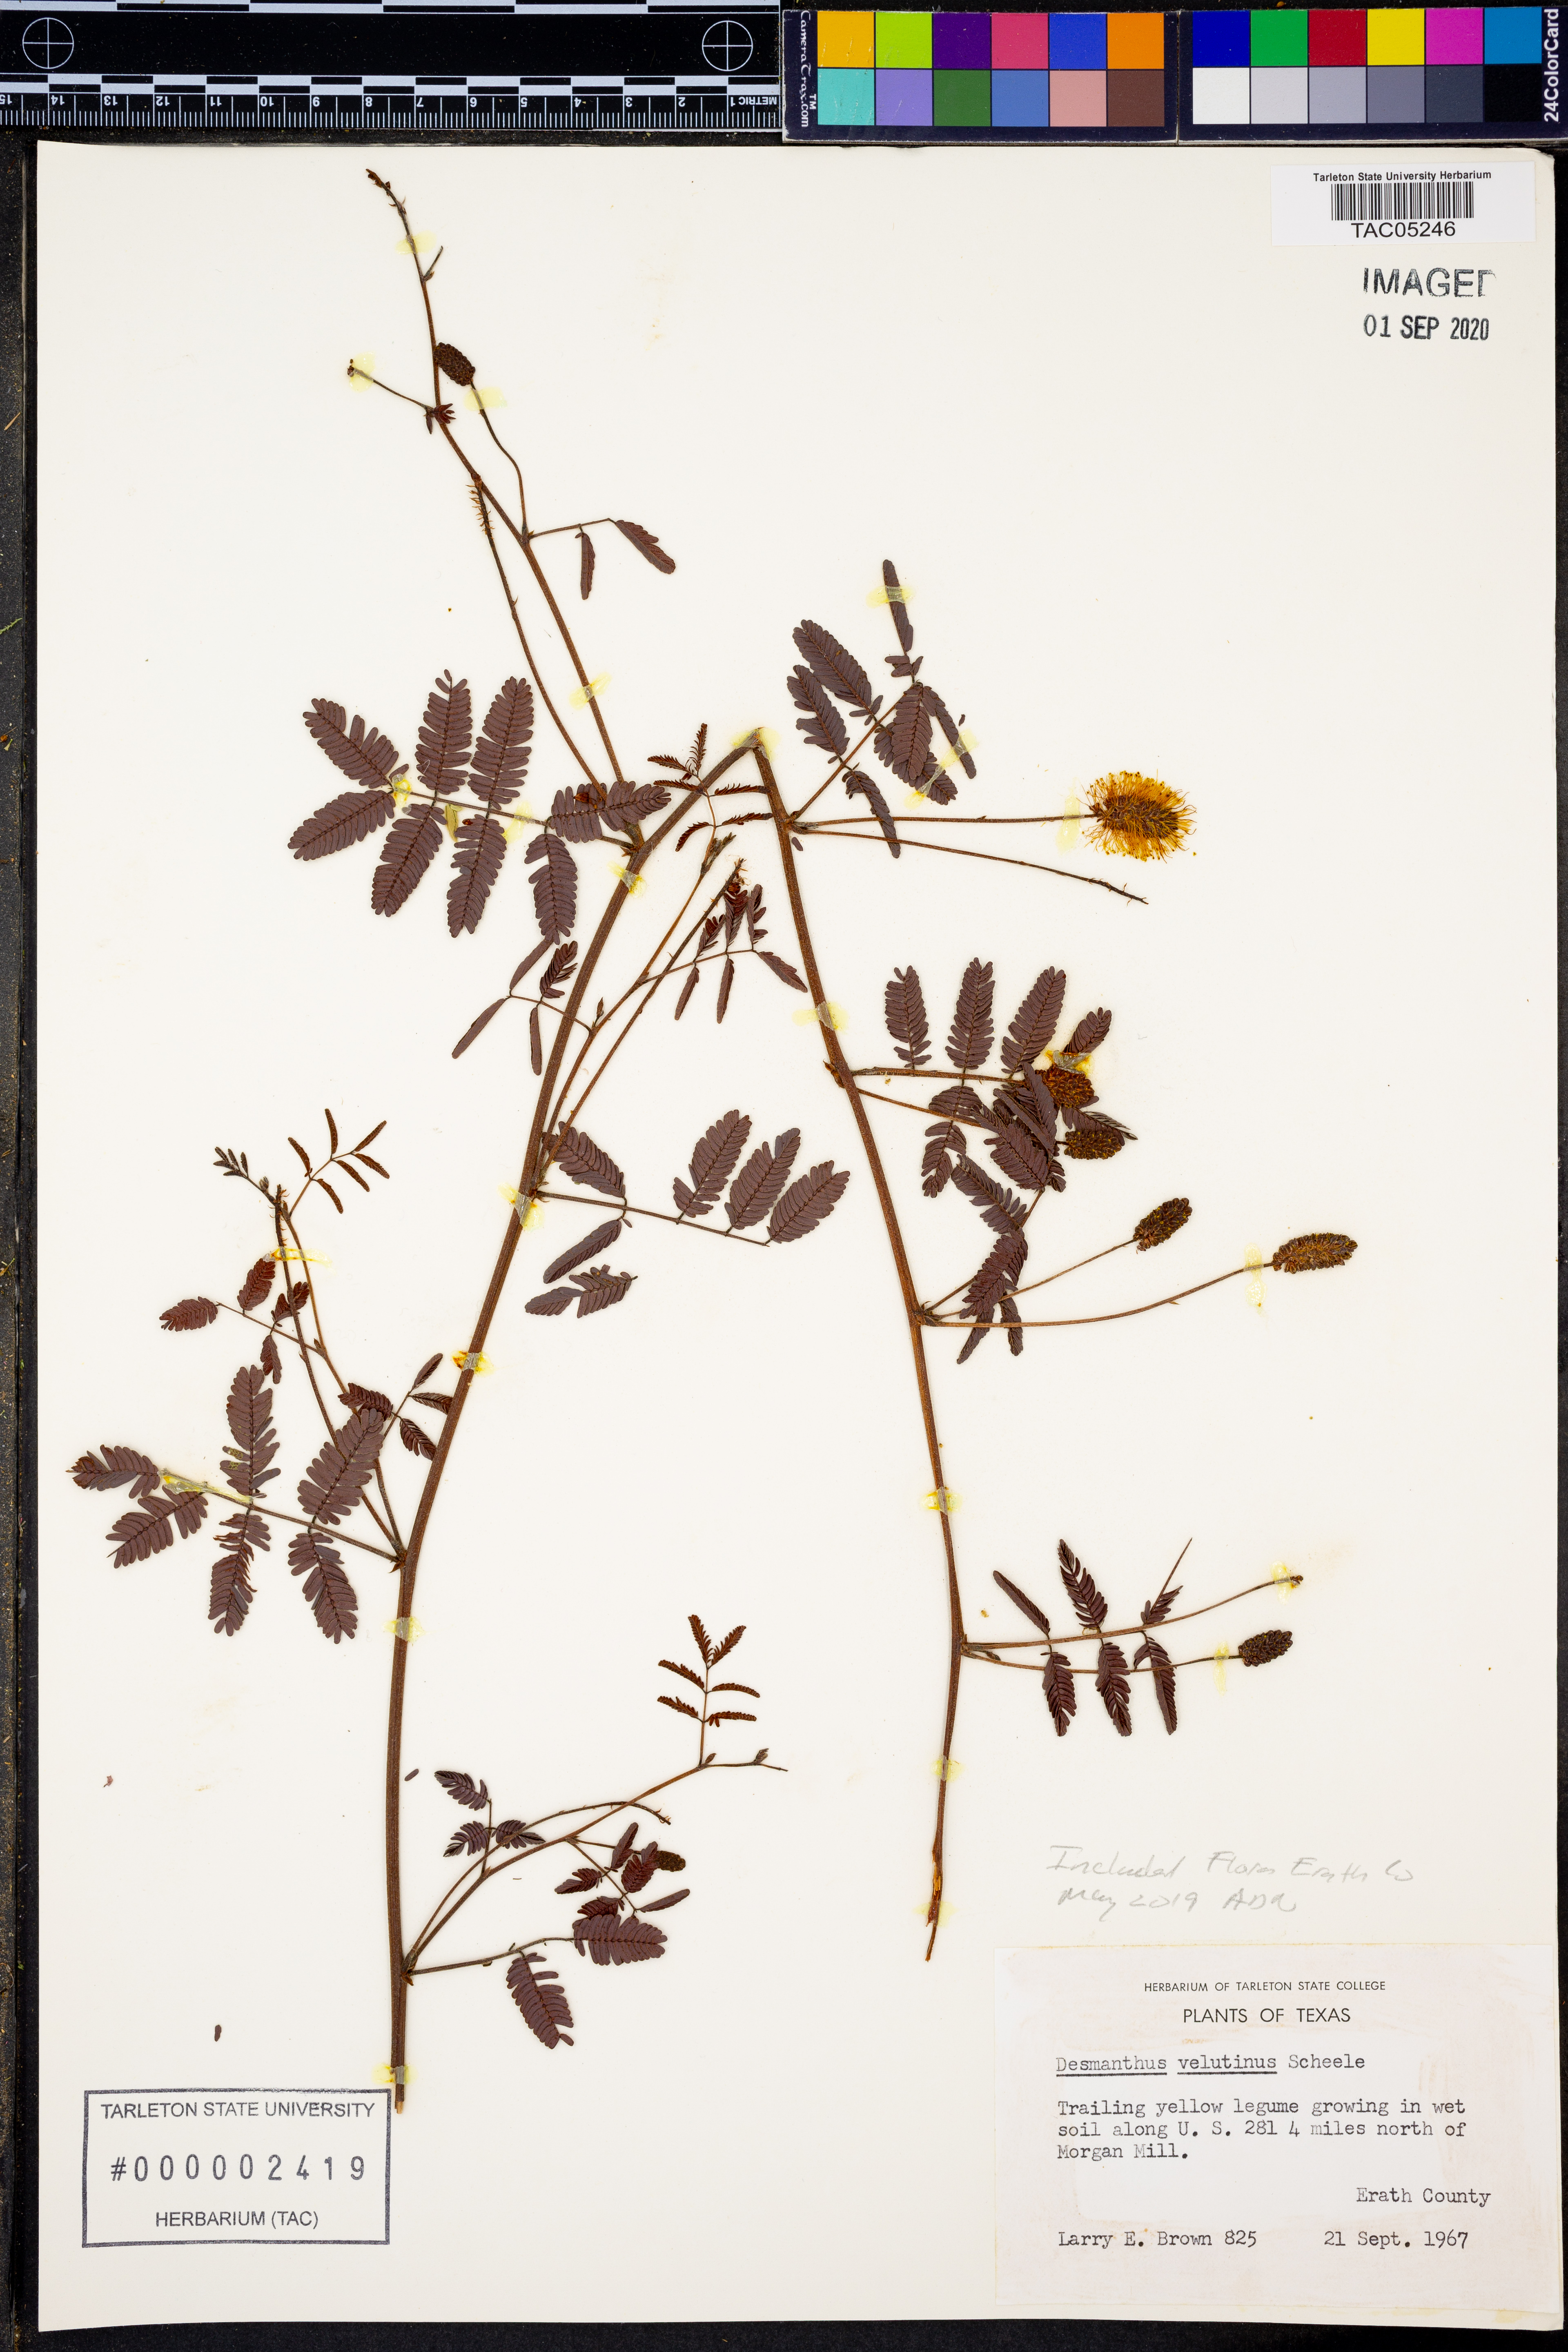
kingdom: Plantae
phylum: Tracheophyta
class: Magnoliopsida
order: Fabales
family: Fabaceae
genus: Desmanthus
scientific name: Desmanthus velutinus
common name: Velvet bundle-flower
